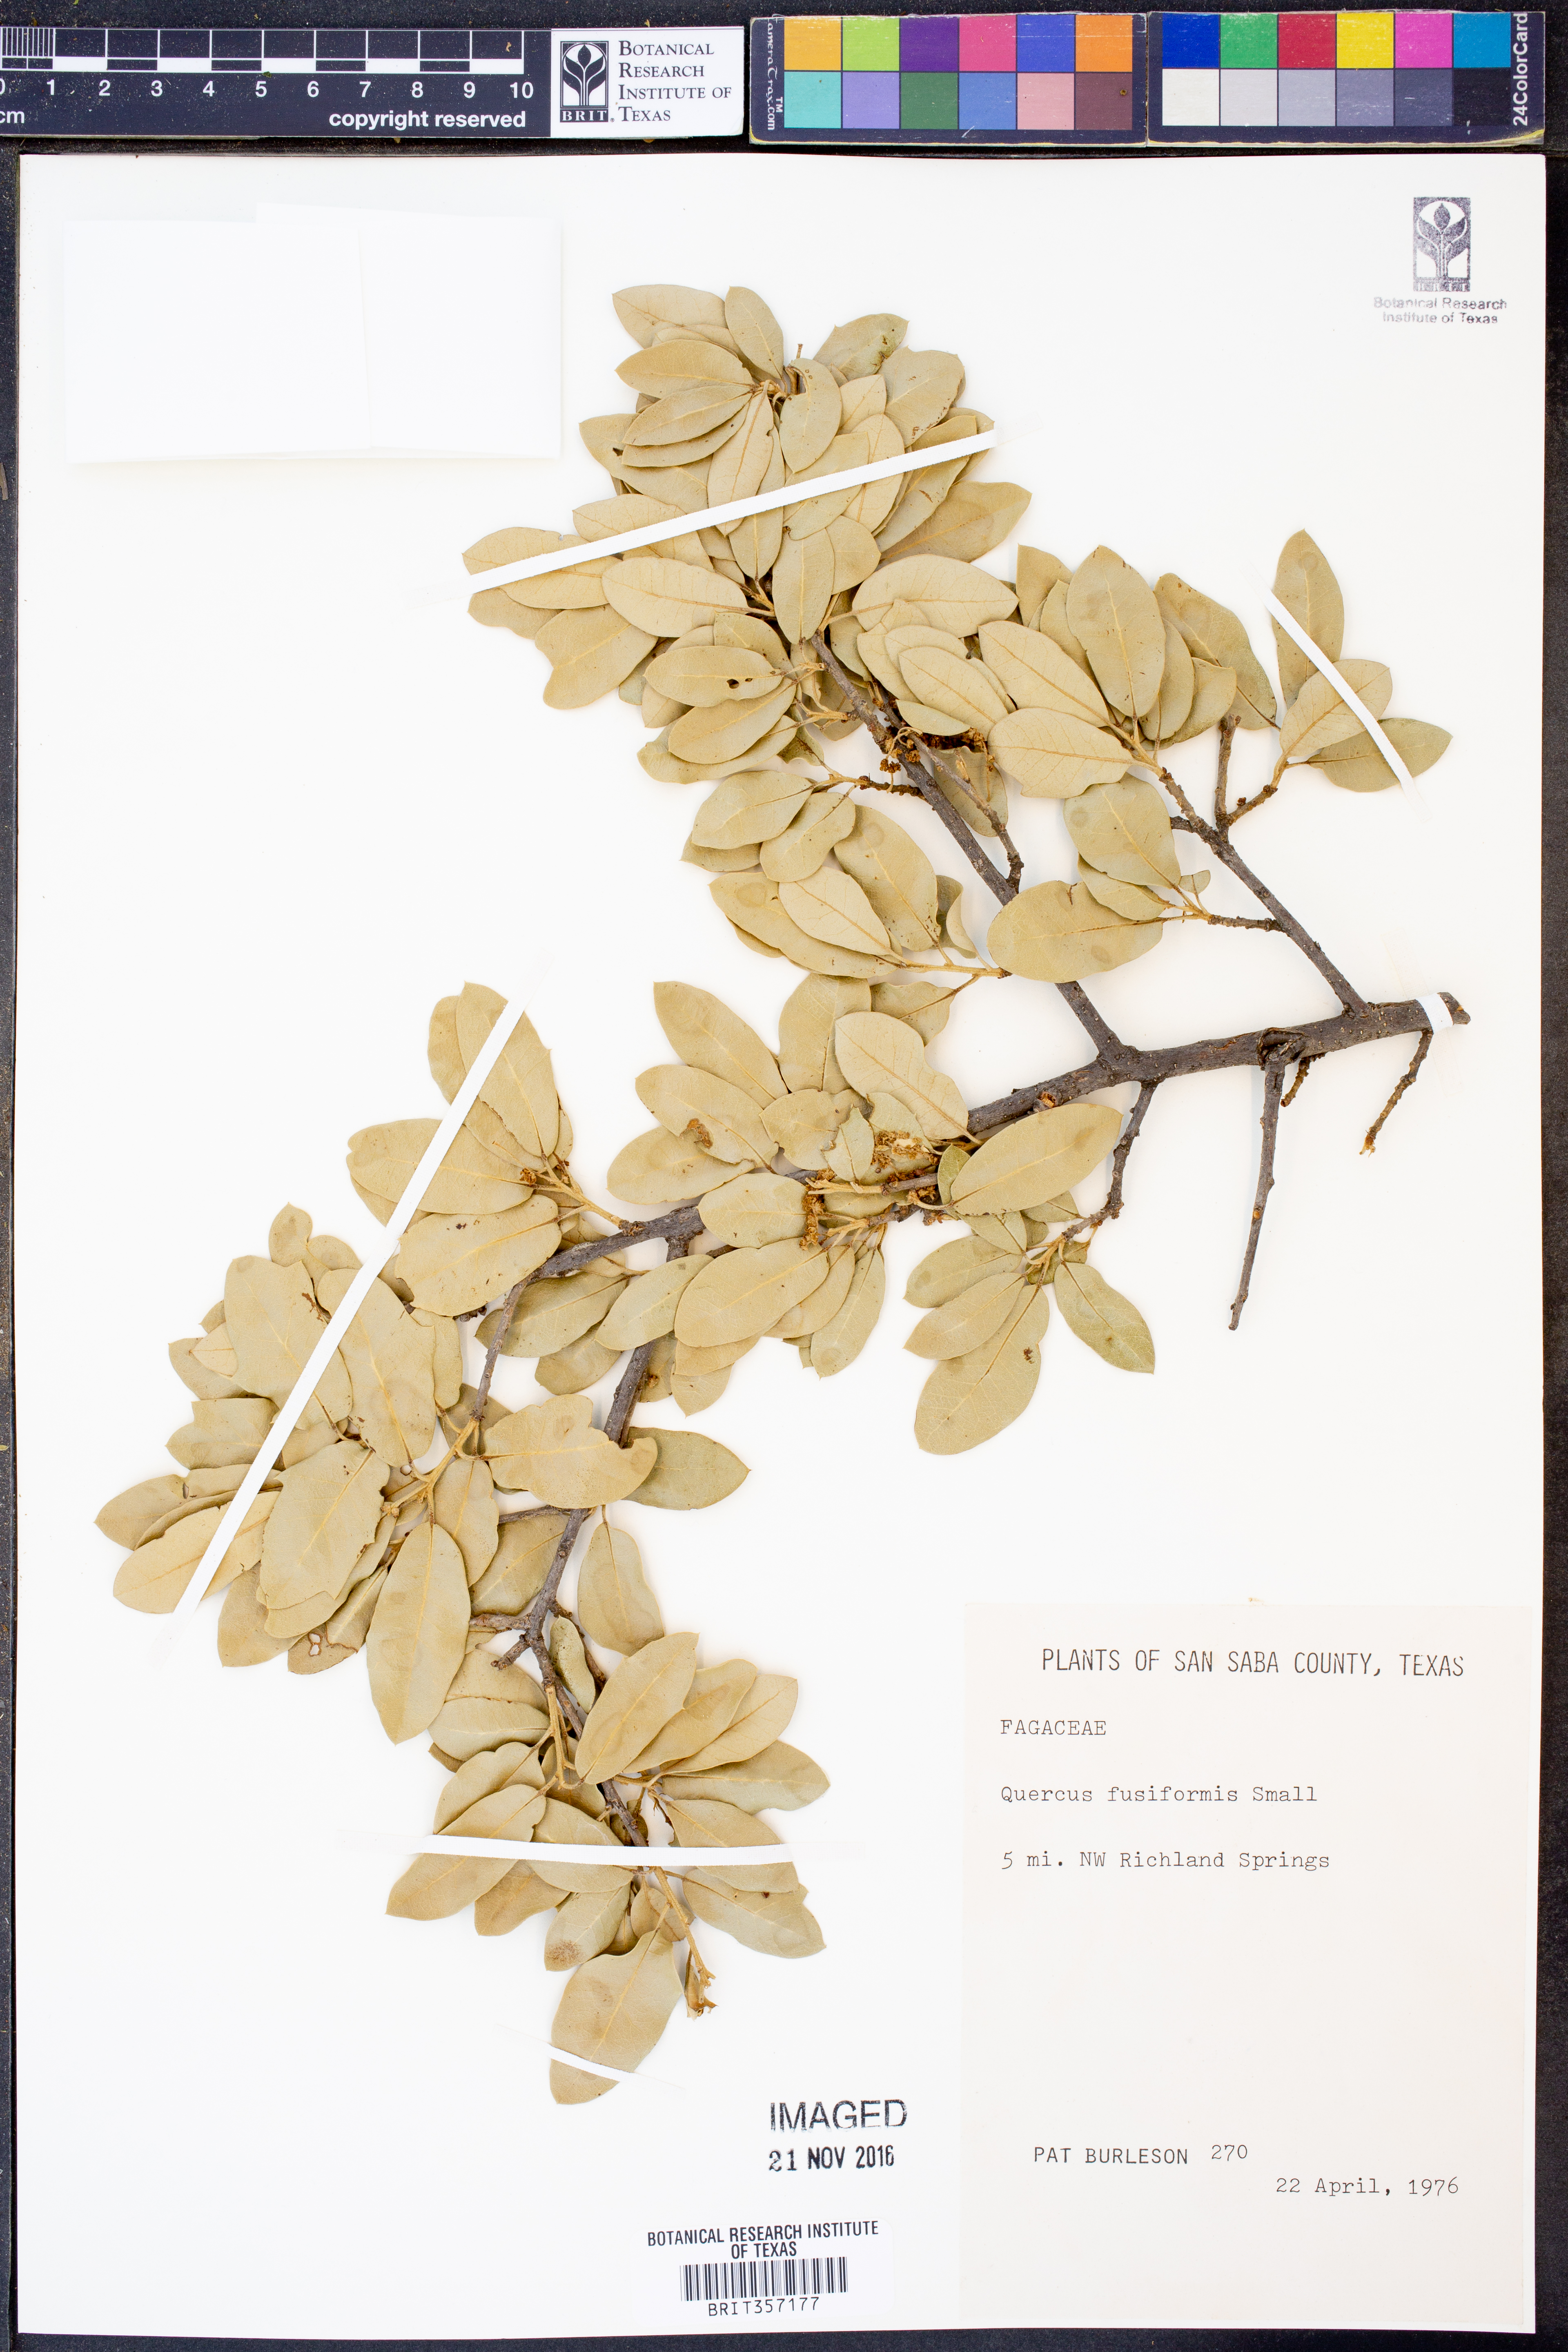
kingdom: Plantae
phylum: Tracheophyta
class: Magnoliopsida
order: Fagales
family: Fagaceae
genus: Quercus
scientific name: Quercus fusiformis
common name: Texas live oak
